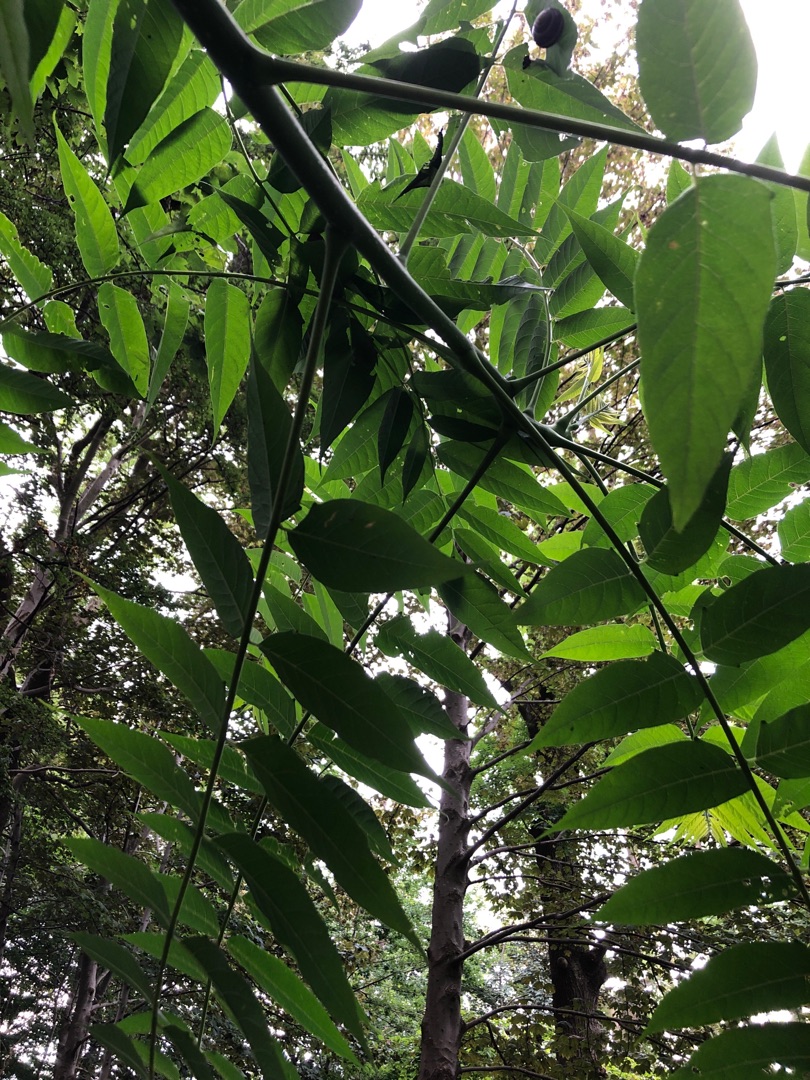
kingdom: Plantae
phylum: Tracheophyta
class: Magnoliopsida
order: Sapindales
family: Simaroubaceae
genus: Ailanthus
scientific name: Ailanthus altissima
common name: Skyrækker
